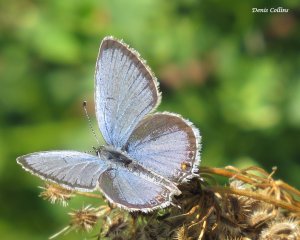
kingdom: Animalia
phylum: Arthropoda
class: Insecta
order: Lepidoptera
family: Lycaenidae
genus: Elkalyce
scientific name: Elkalyce comyntas
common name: Eastern Tailed-Blue
